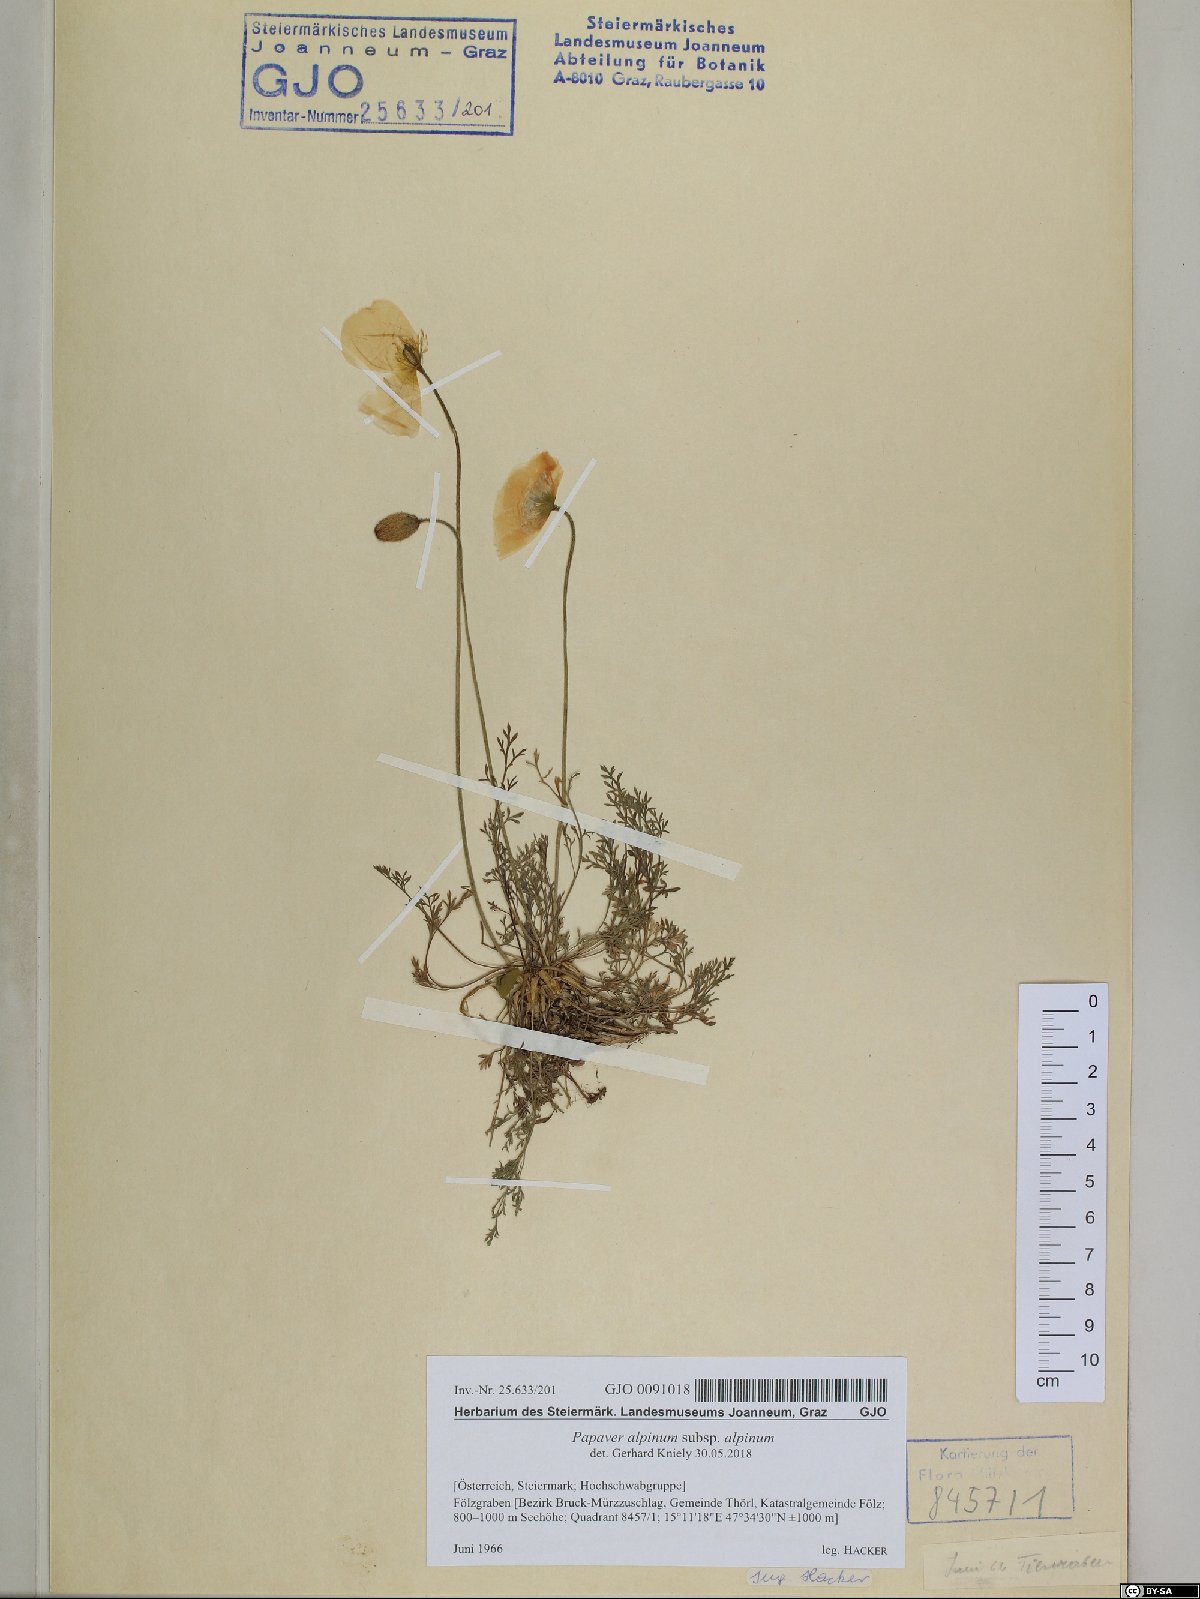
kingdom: Plantae
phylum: Tracheophyta
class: Magnoliopsida
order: Ranunculales
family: Papaveraceae
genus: Papaver
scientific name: Papaver alpinum
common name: Austrian poppy
